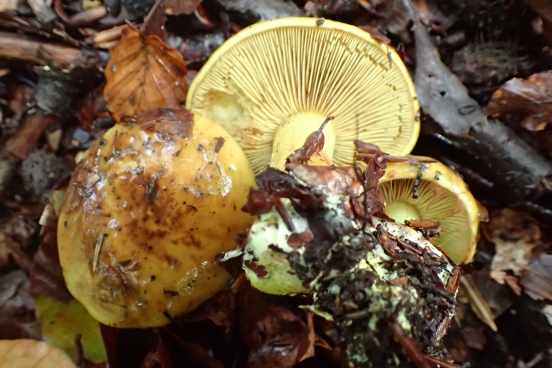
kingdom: Fungi
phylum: Basidiomycota
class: Agaricomycetes
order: Agaricales
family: Cortinariaceae
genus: Calonarius
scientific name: Calonarius citrinus
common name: citrongul slørhat
